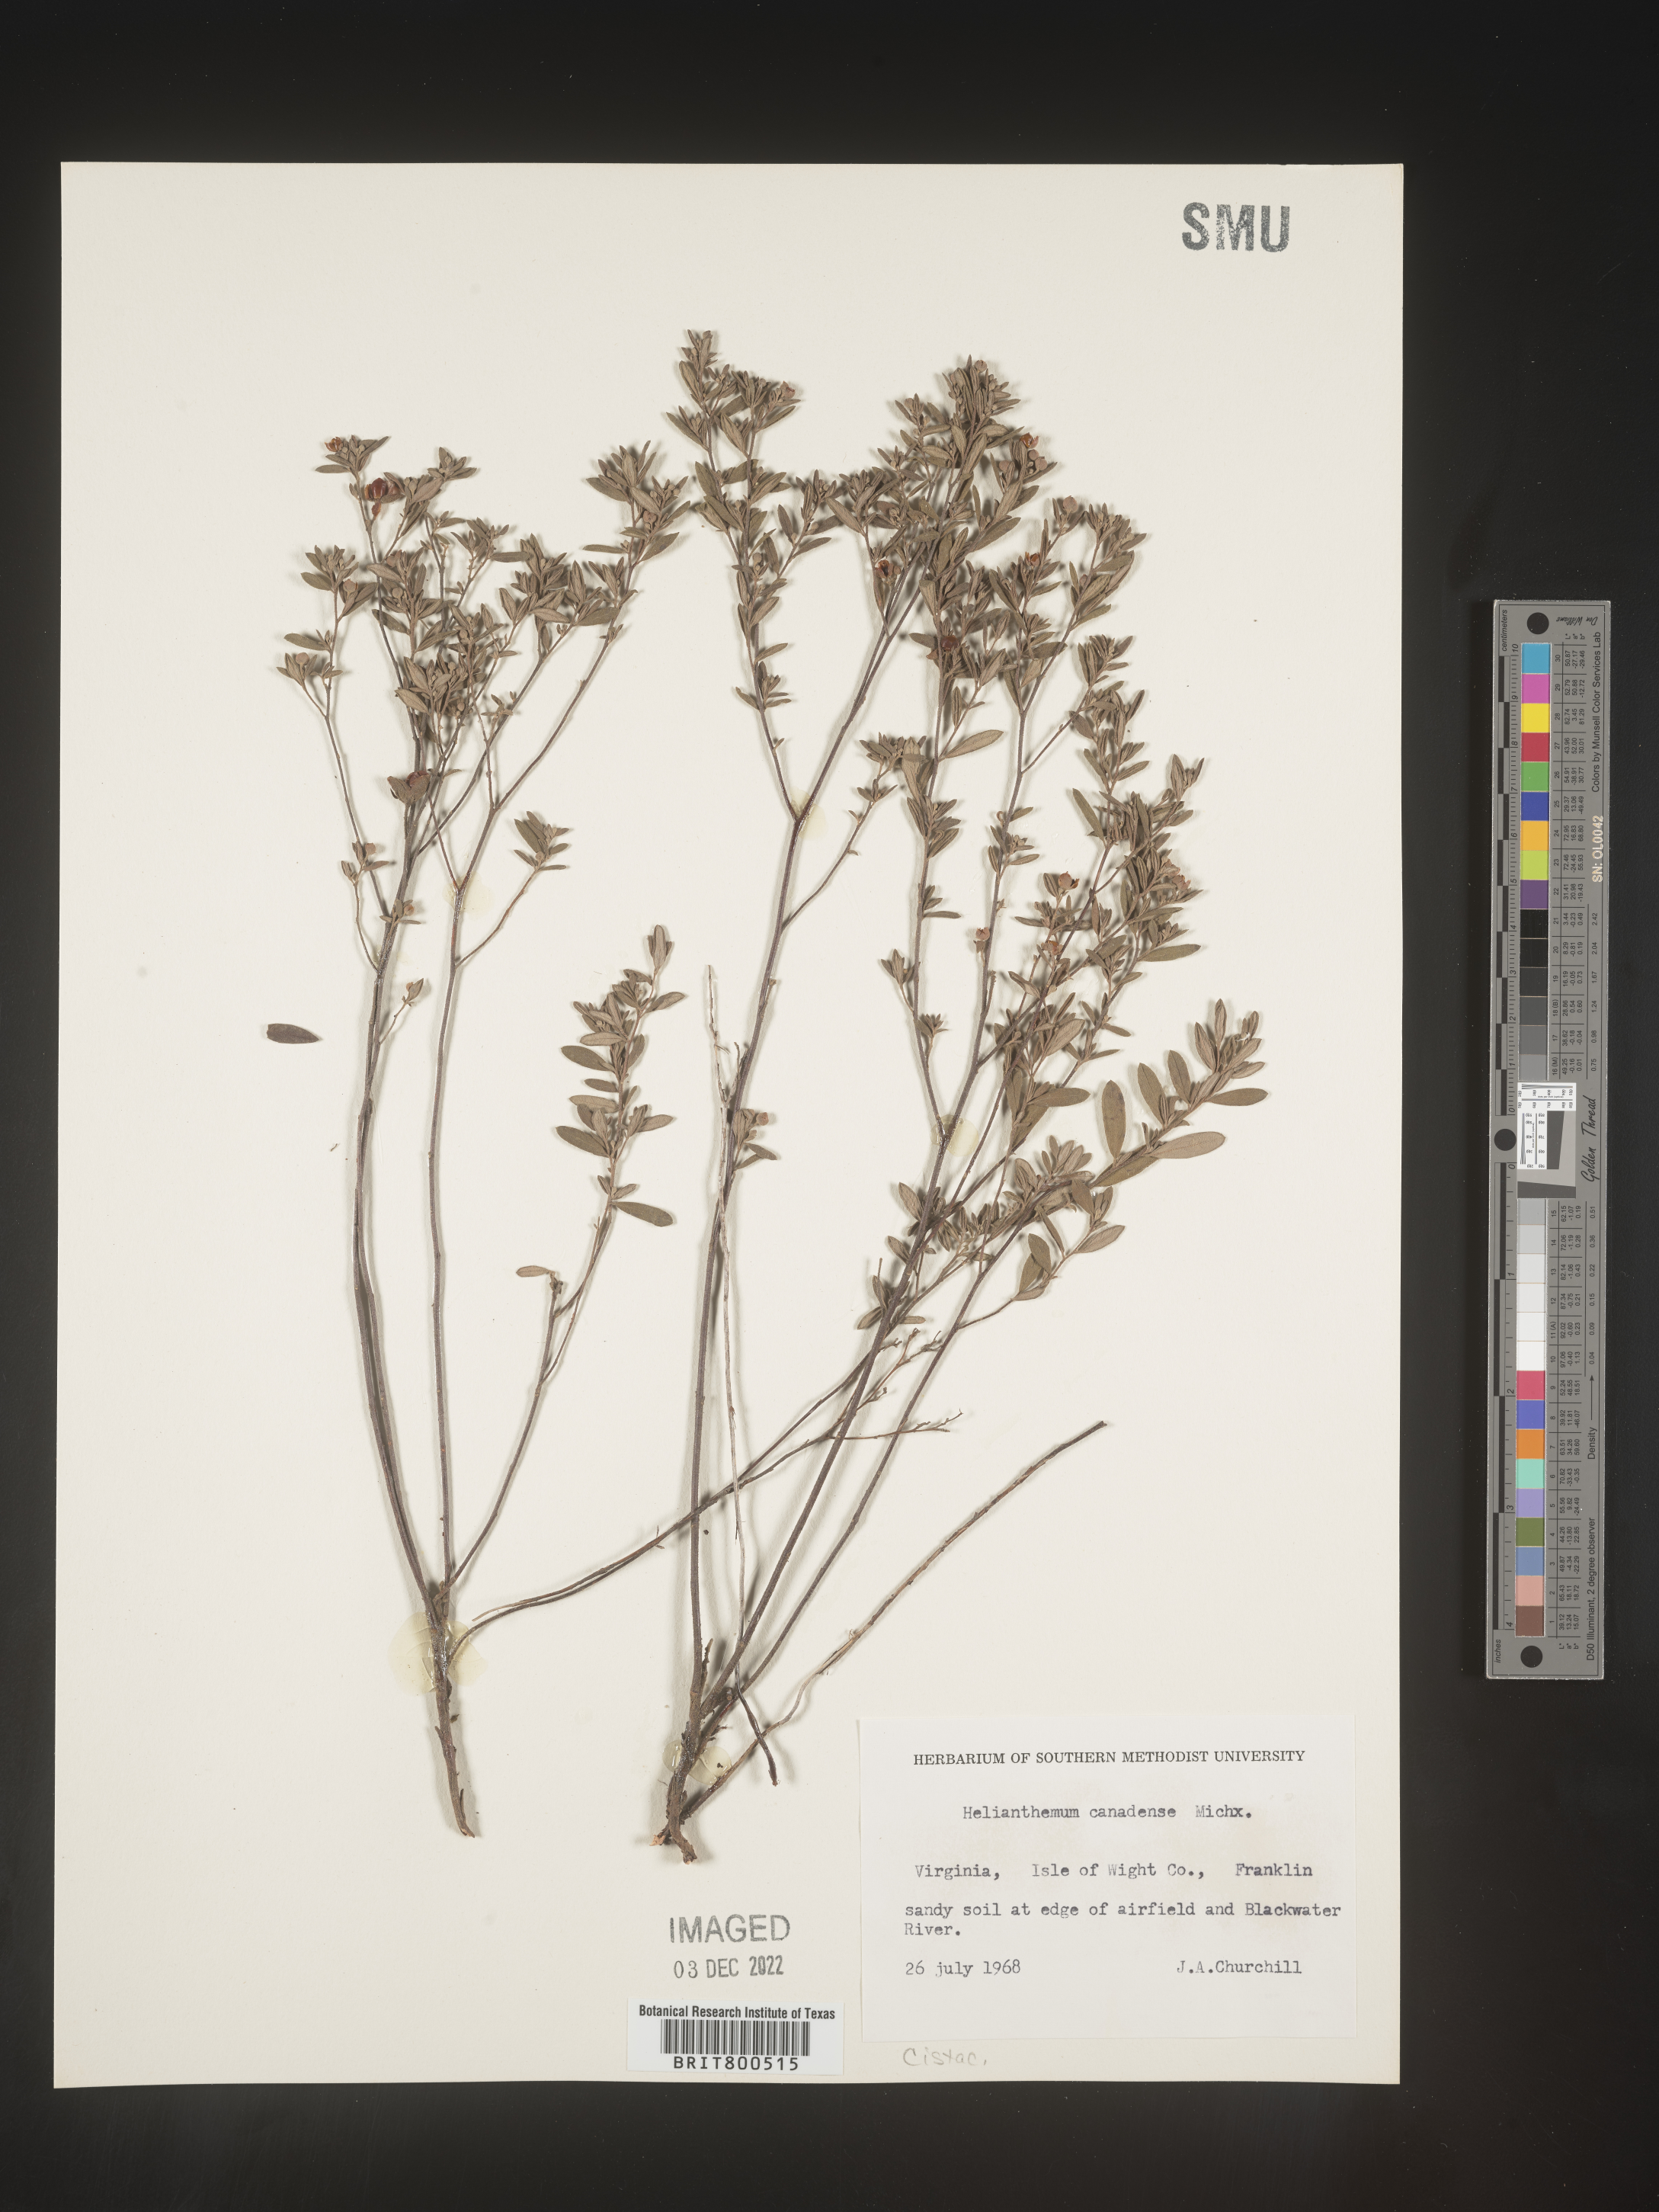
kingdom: Plantae
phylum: Tracheophyta
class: Magnoliopsida
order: Malvales
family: Cistaceae
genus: Crocanthemum
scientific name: Crocanthemum canadense
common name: Canada frostweed
